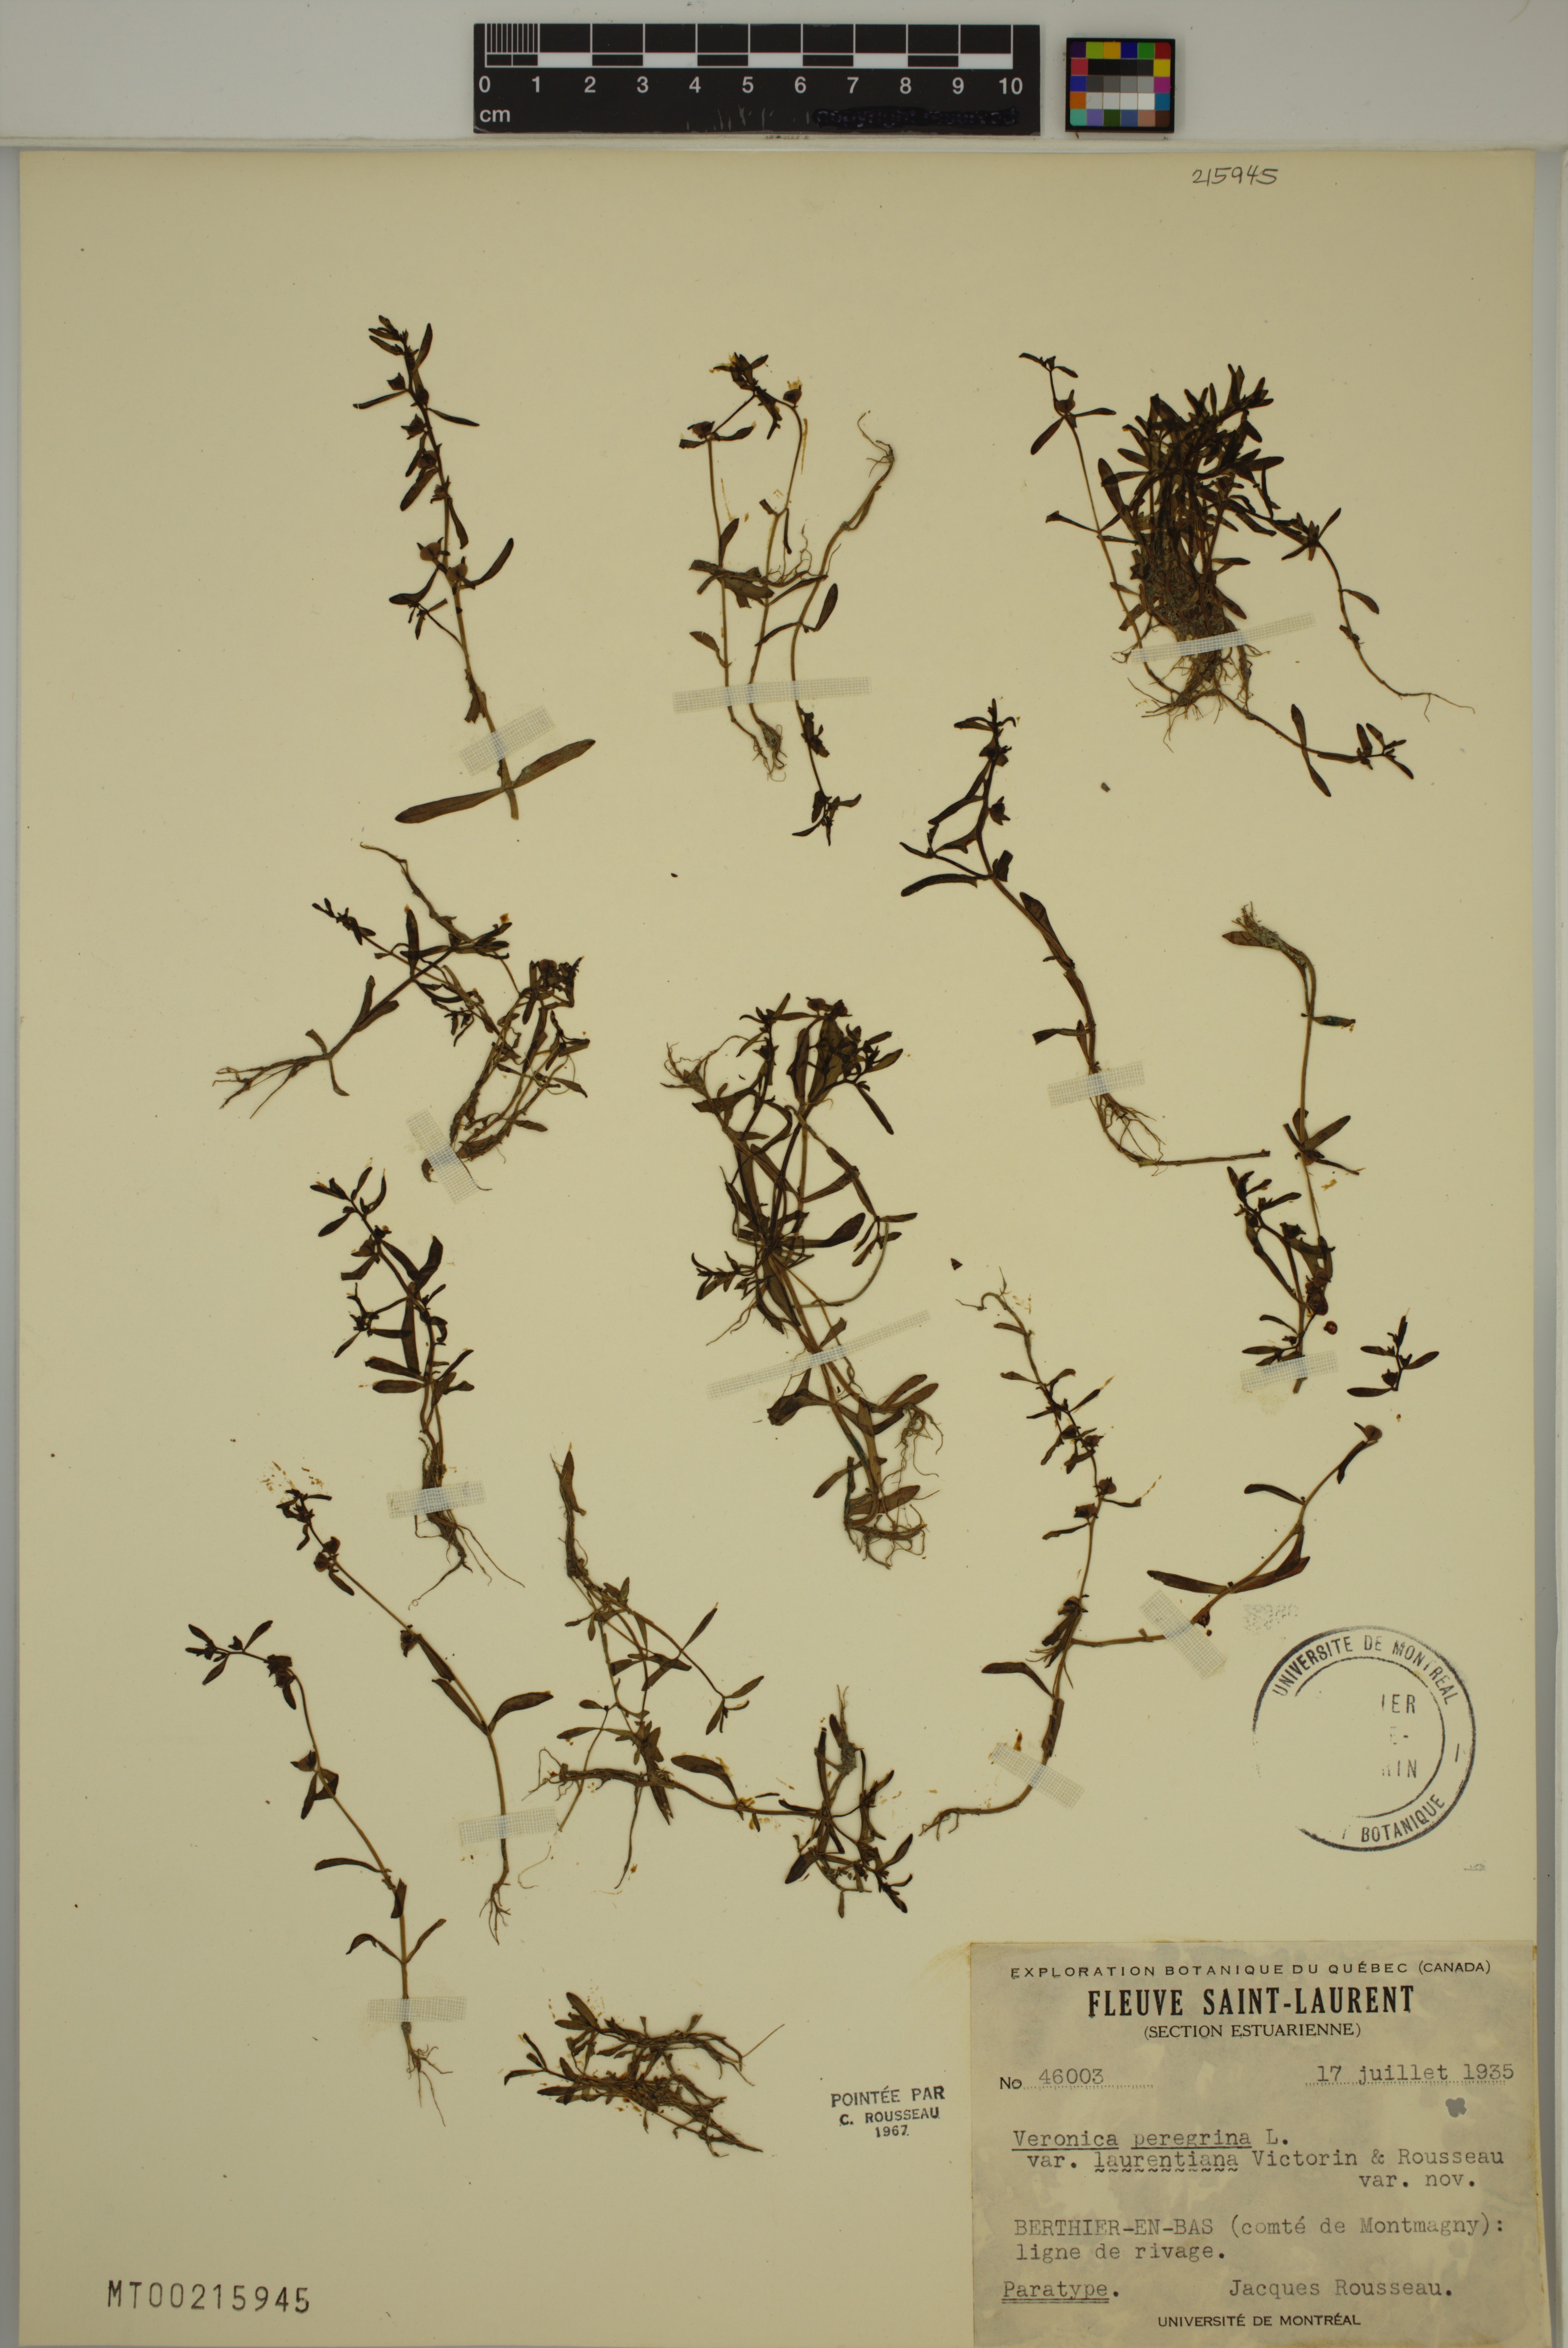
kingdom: Plantae
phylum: Tracheophyta
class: Magnoliopsida
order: Lamiales
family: Plantaginaceae
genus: Veronica
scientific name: Veronica peregrina
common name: Neckweed
